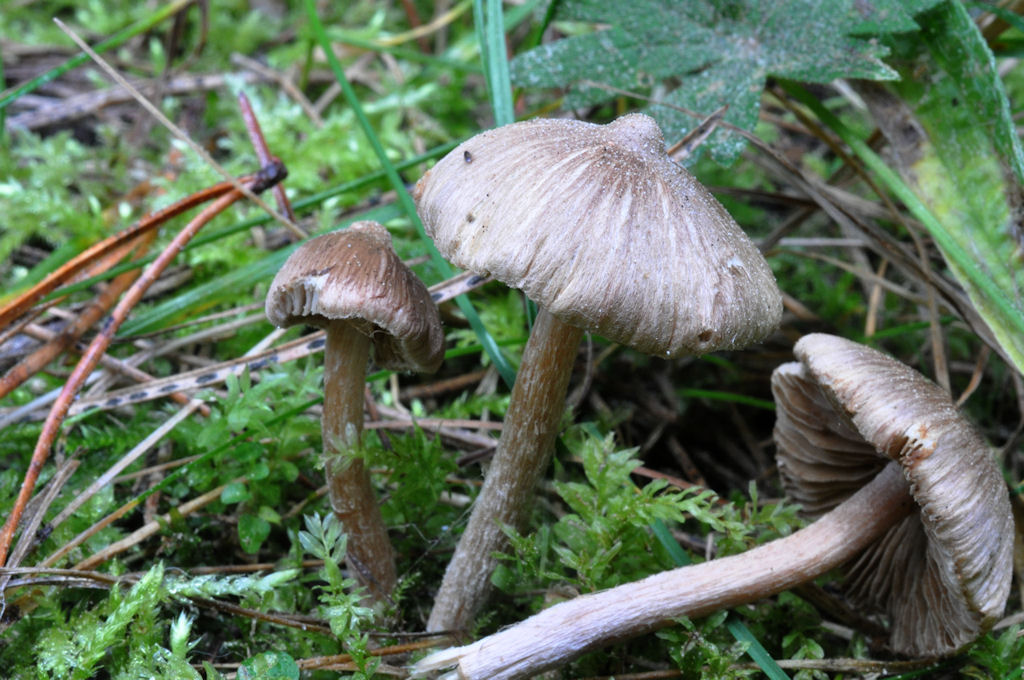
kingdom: Fungi
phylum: Basidiomycota
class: Agaricomycetes
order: Agaricales
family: Inocybaceae
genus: Inocybe
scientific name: Inocybe
